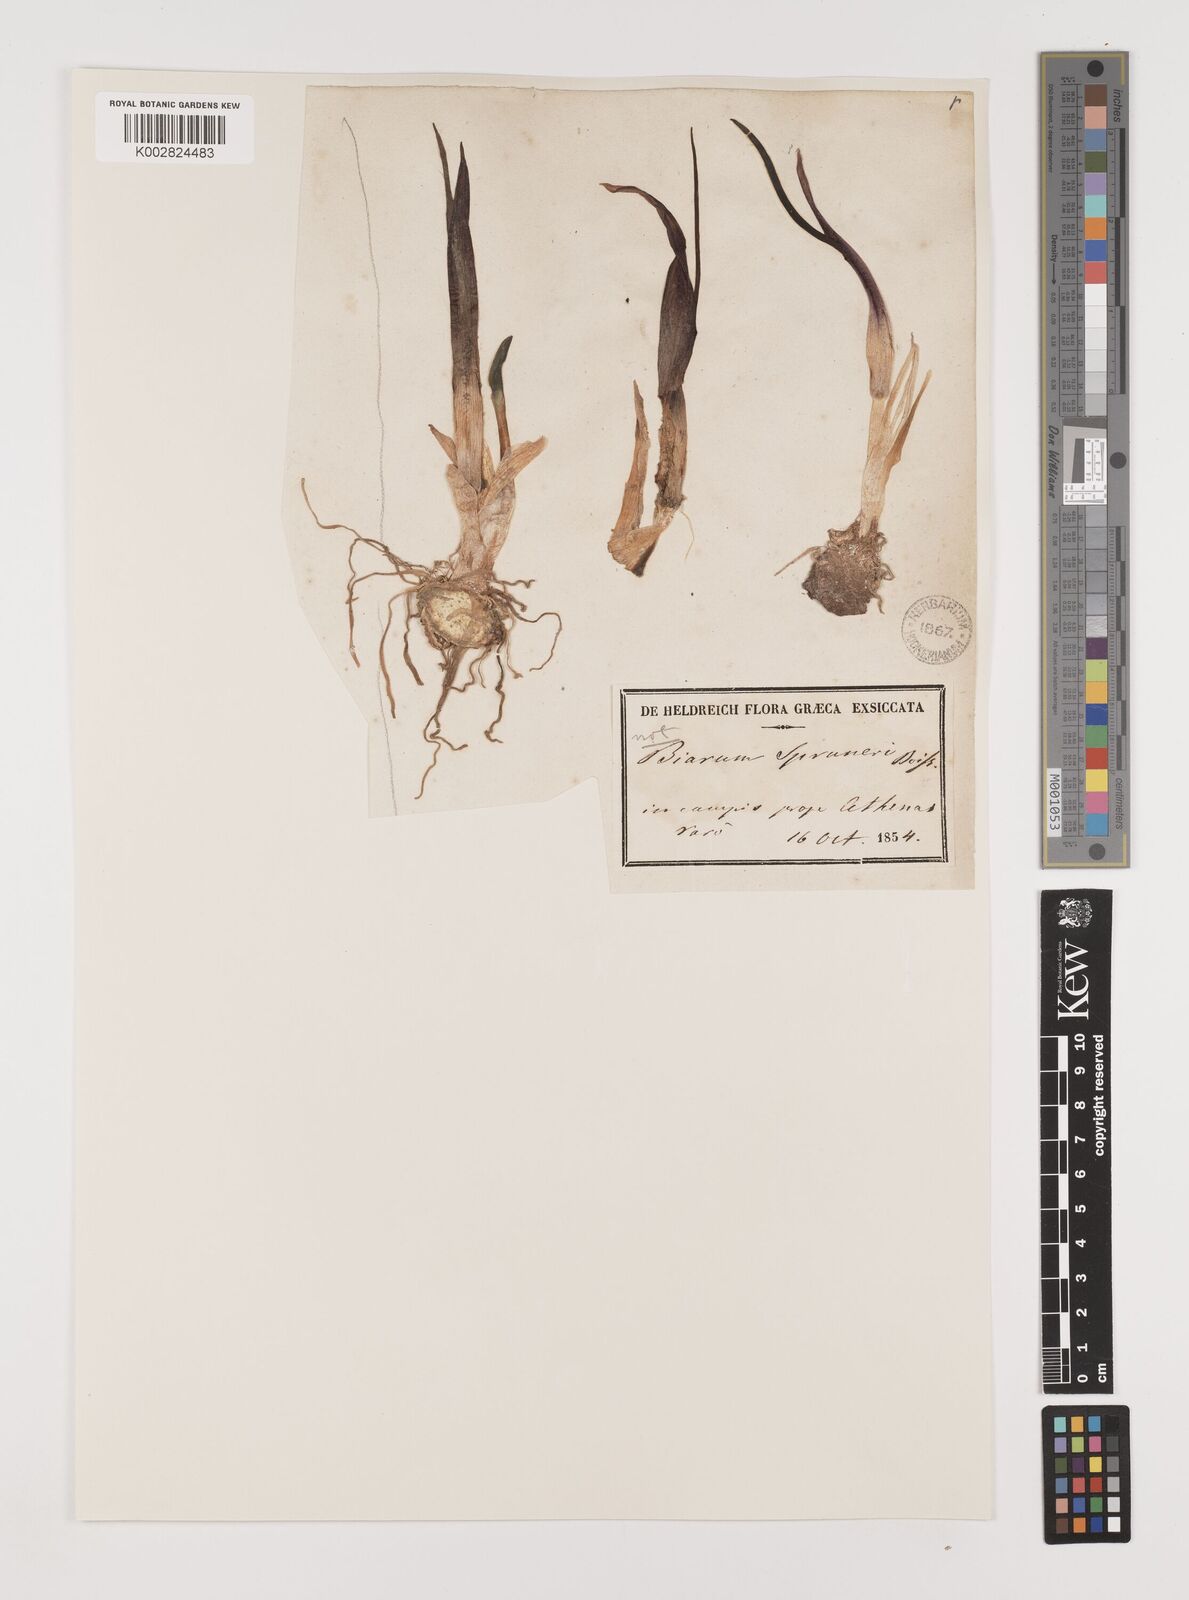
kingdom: Plantae
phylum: Tracheophyta
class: Liliopsida
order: Alismatales
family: Araceae
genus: Biarum
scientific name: Biarum tenuifolium
